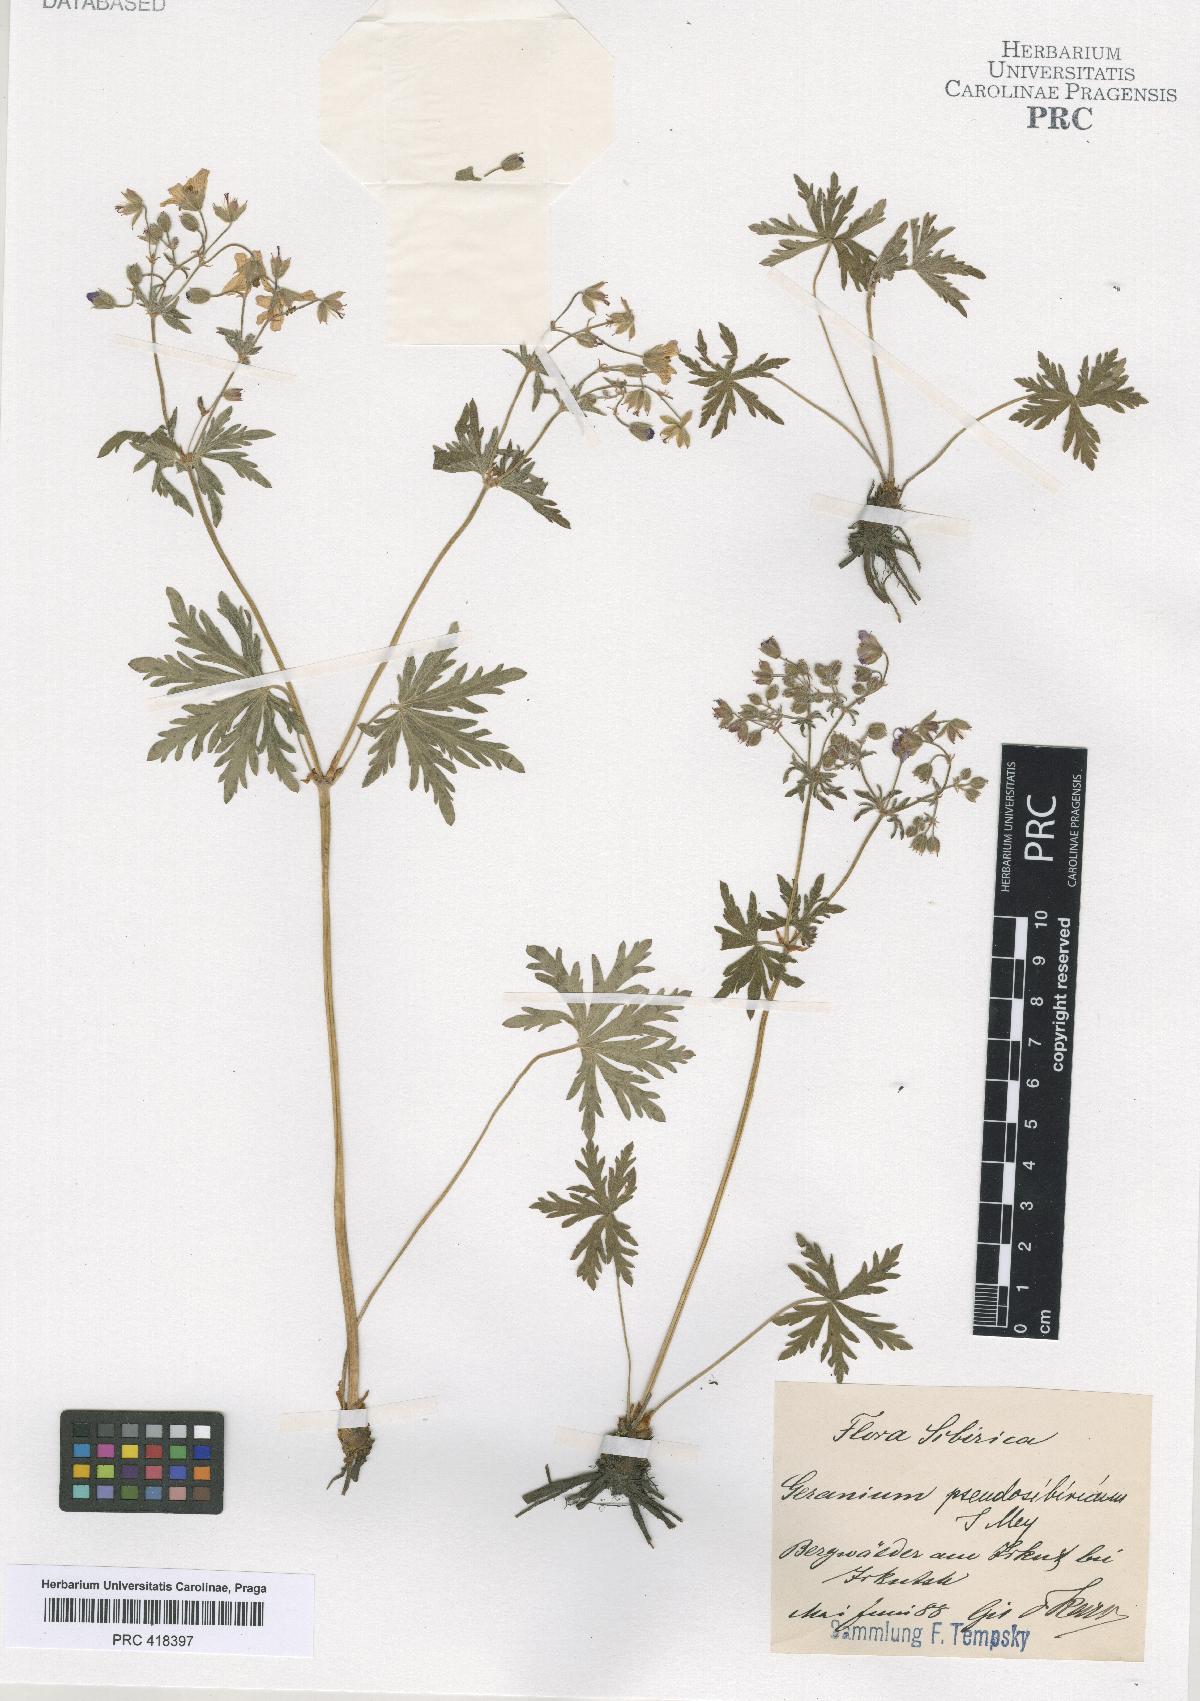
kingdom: Plantae
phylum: Tracheophyta
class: Magnoliopsida
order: Geraniales
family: Geraniaceae
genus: Geranium
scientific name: Geranium pseudosibiricum
